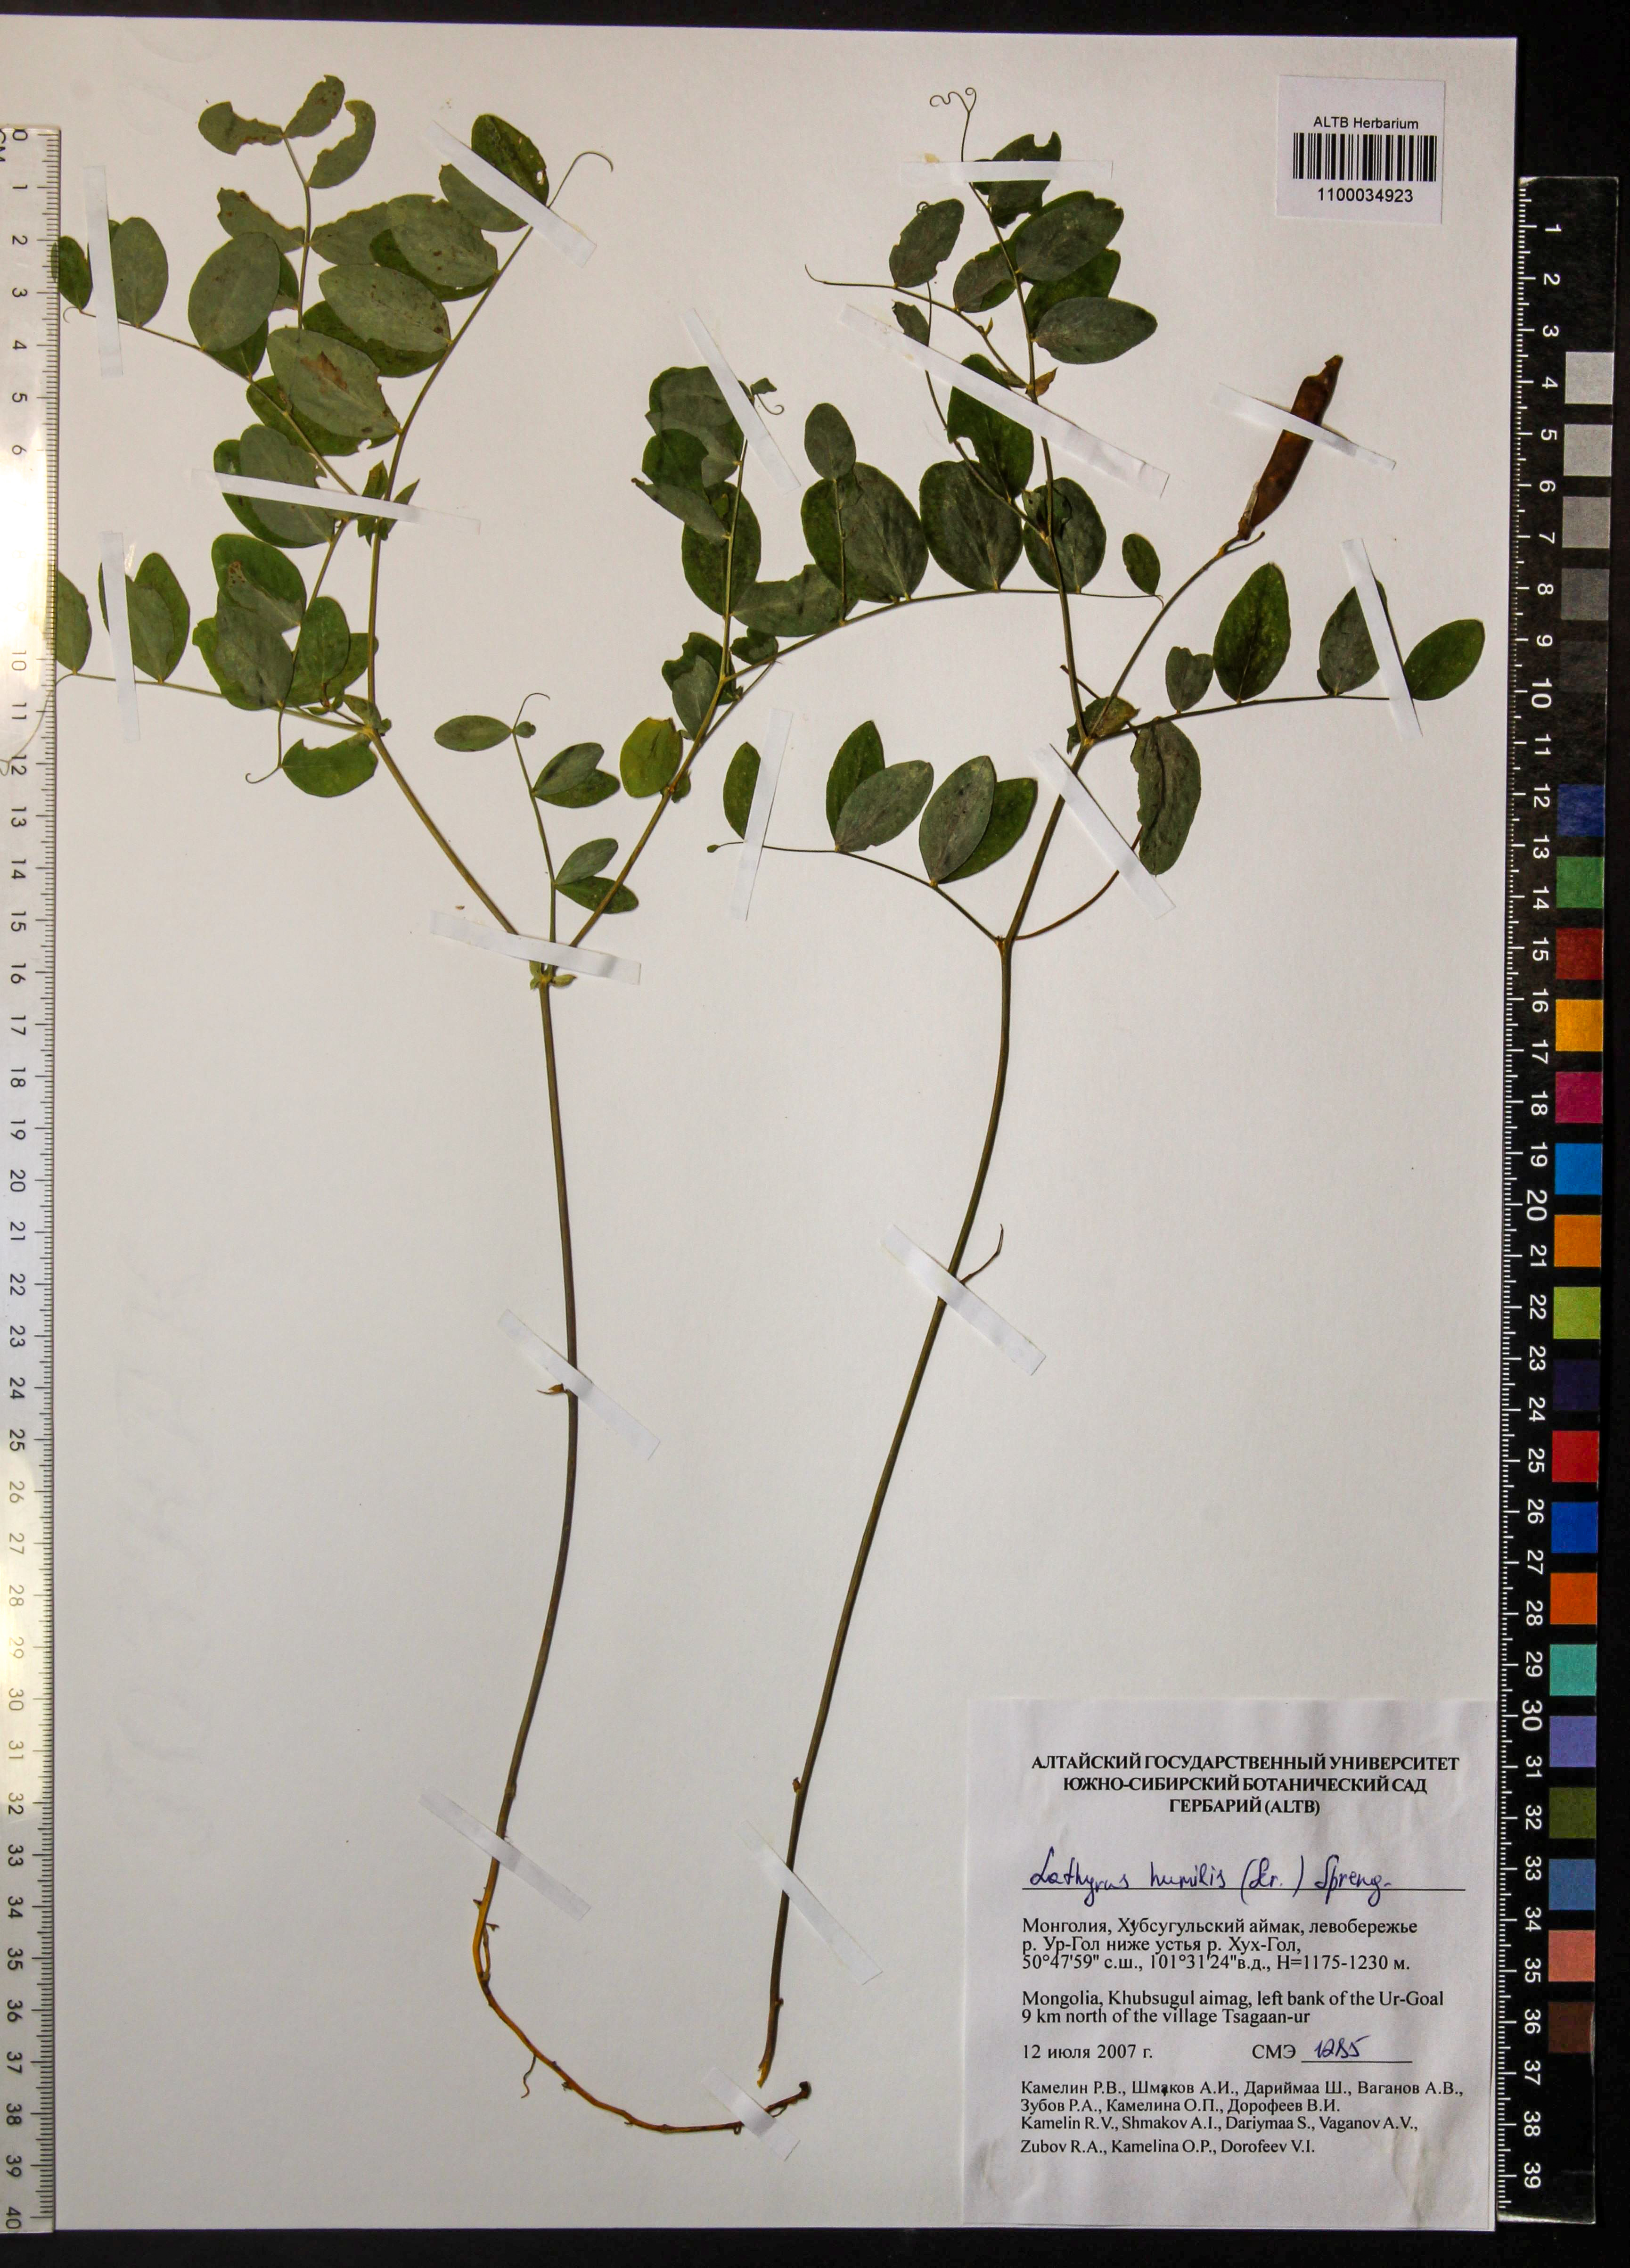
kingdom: Plantae
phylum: Tracheophyta
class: Magnoliopsida
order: Fabales
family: Fabaceae
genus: Lathyrus
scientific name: Lathyrus humilis
